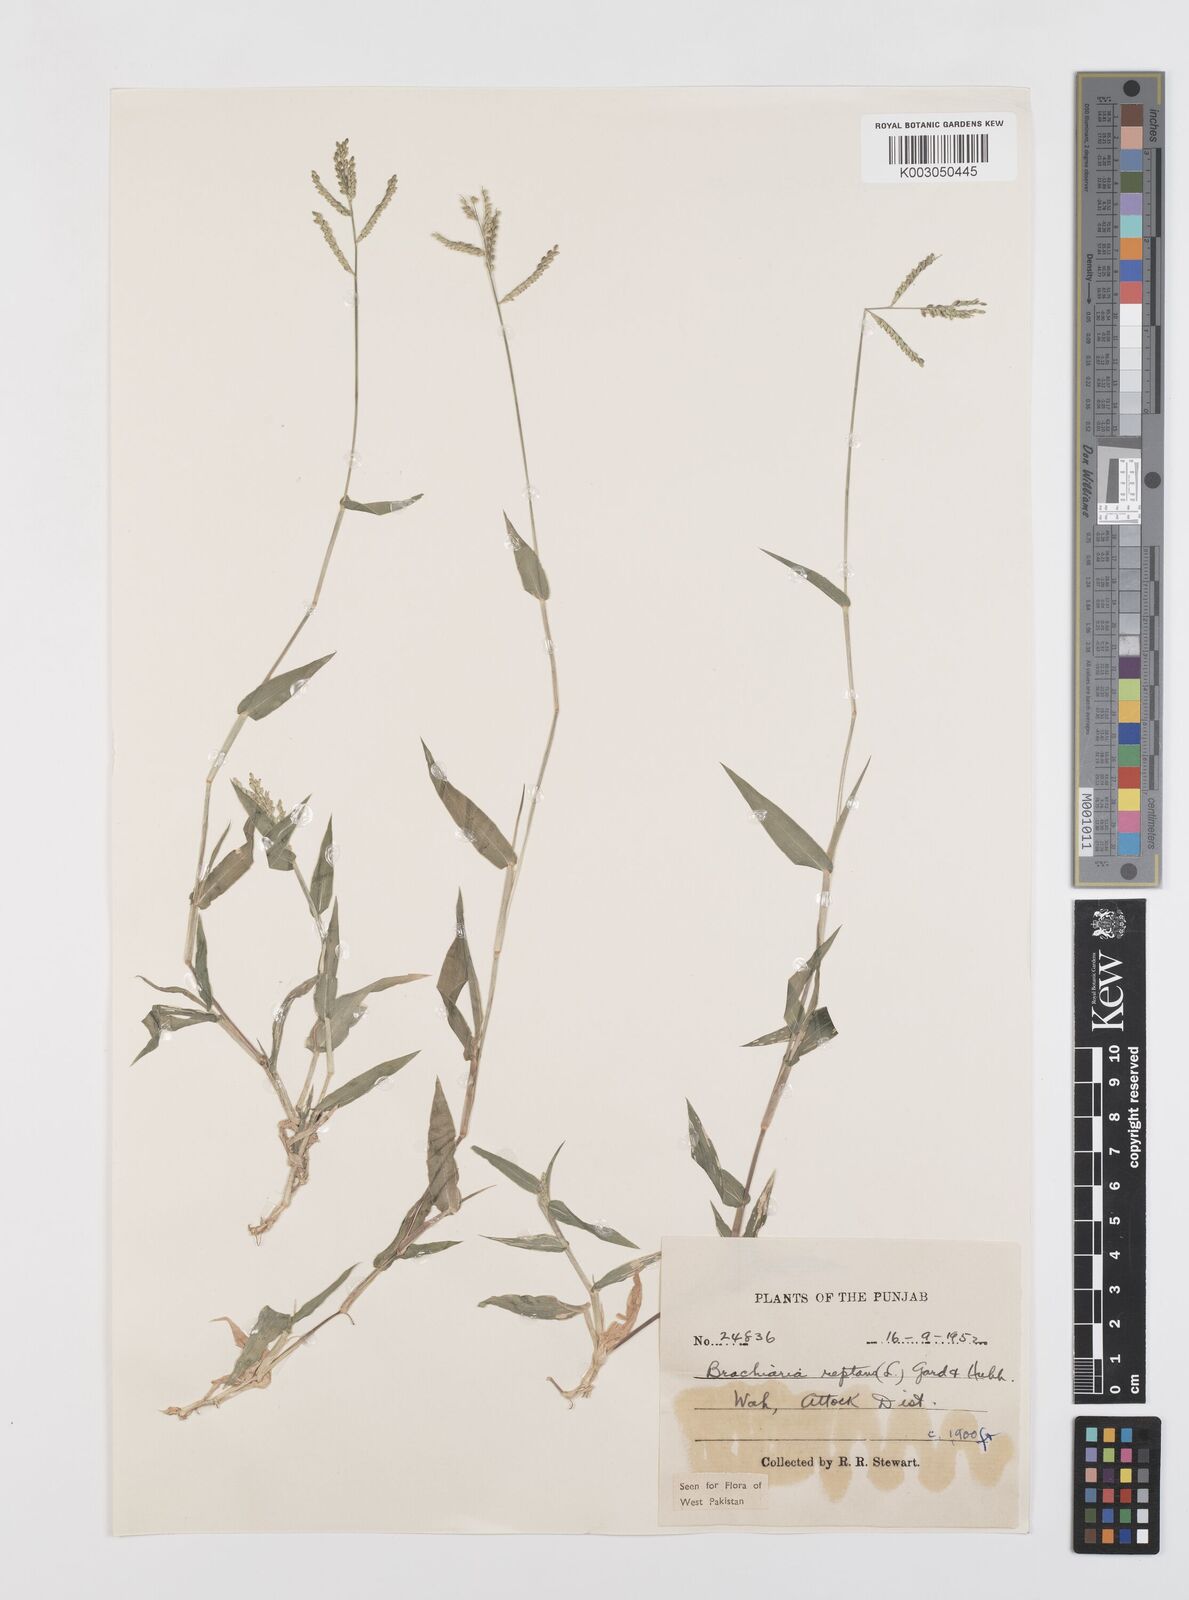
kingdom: Plantae
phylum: Tracheophyta
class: Liliopsida
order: Poales
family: Poaceae
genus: Urochloa
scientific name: Urochloa reptans
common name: Sprawling signalgrass
